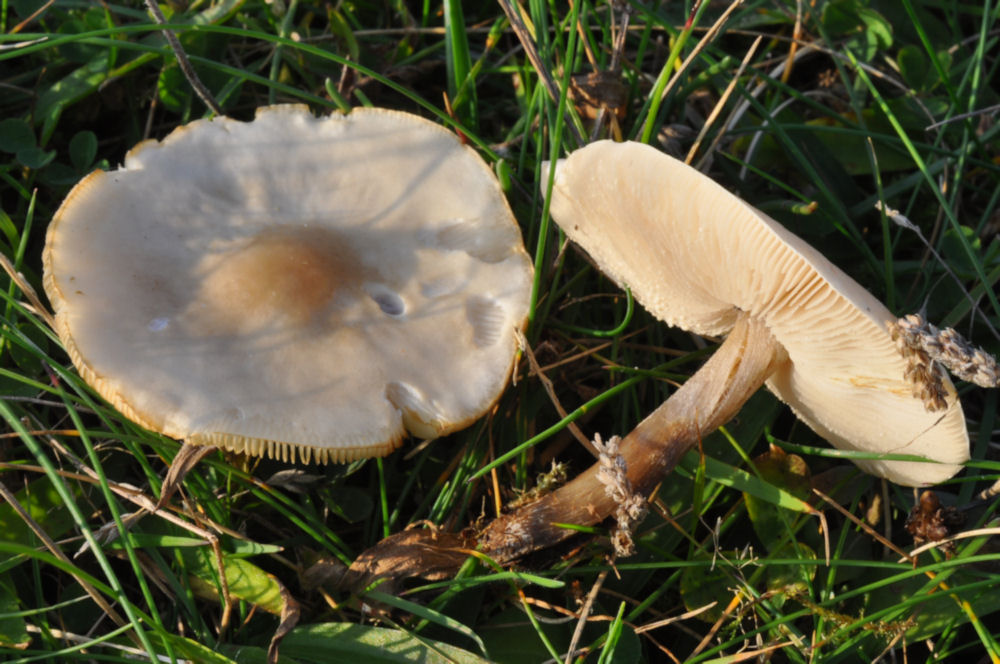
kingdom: Fungi
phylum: Basidiomycota
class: Agaricomycetes
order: Agaricales
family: Tricholomataceae
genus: Melanoleuca
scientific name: Melanoleuca strictipes
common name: sommer-munkehat
